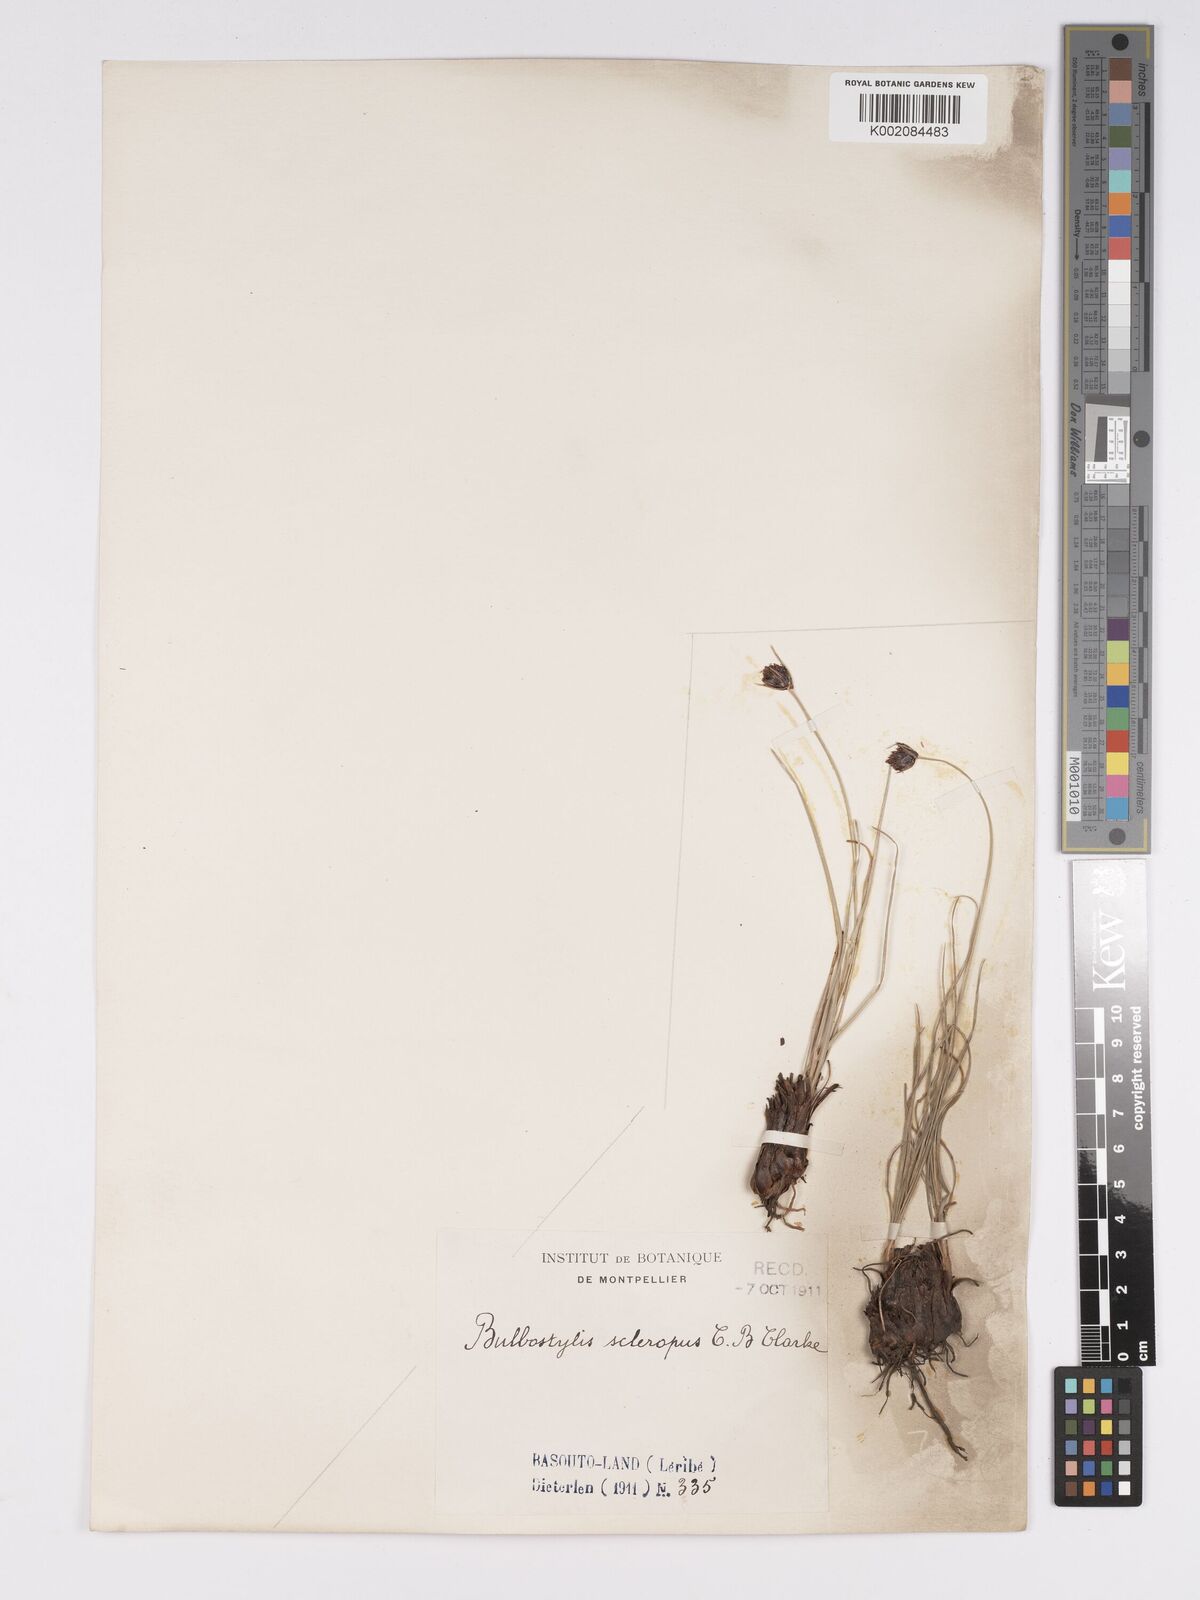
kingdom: Plantae
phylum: Tracheophyta
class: Liliopsida
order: Poales
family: Cyperaceae
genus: Bulbostylis
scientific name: Bulbostylis schoenoides
